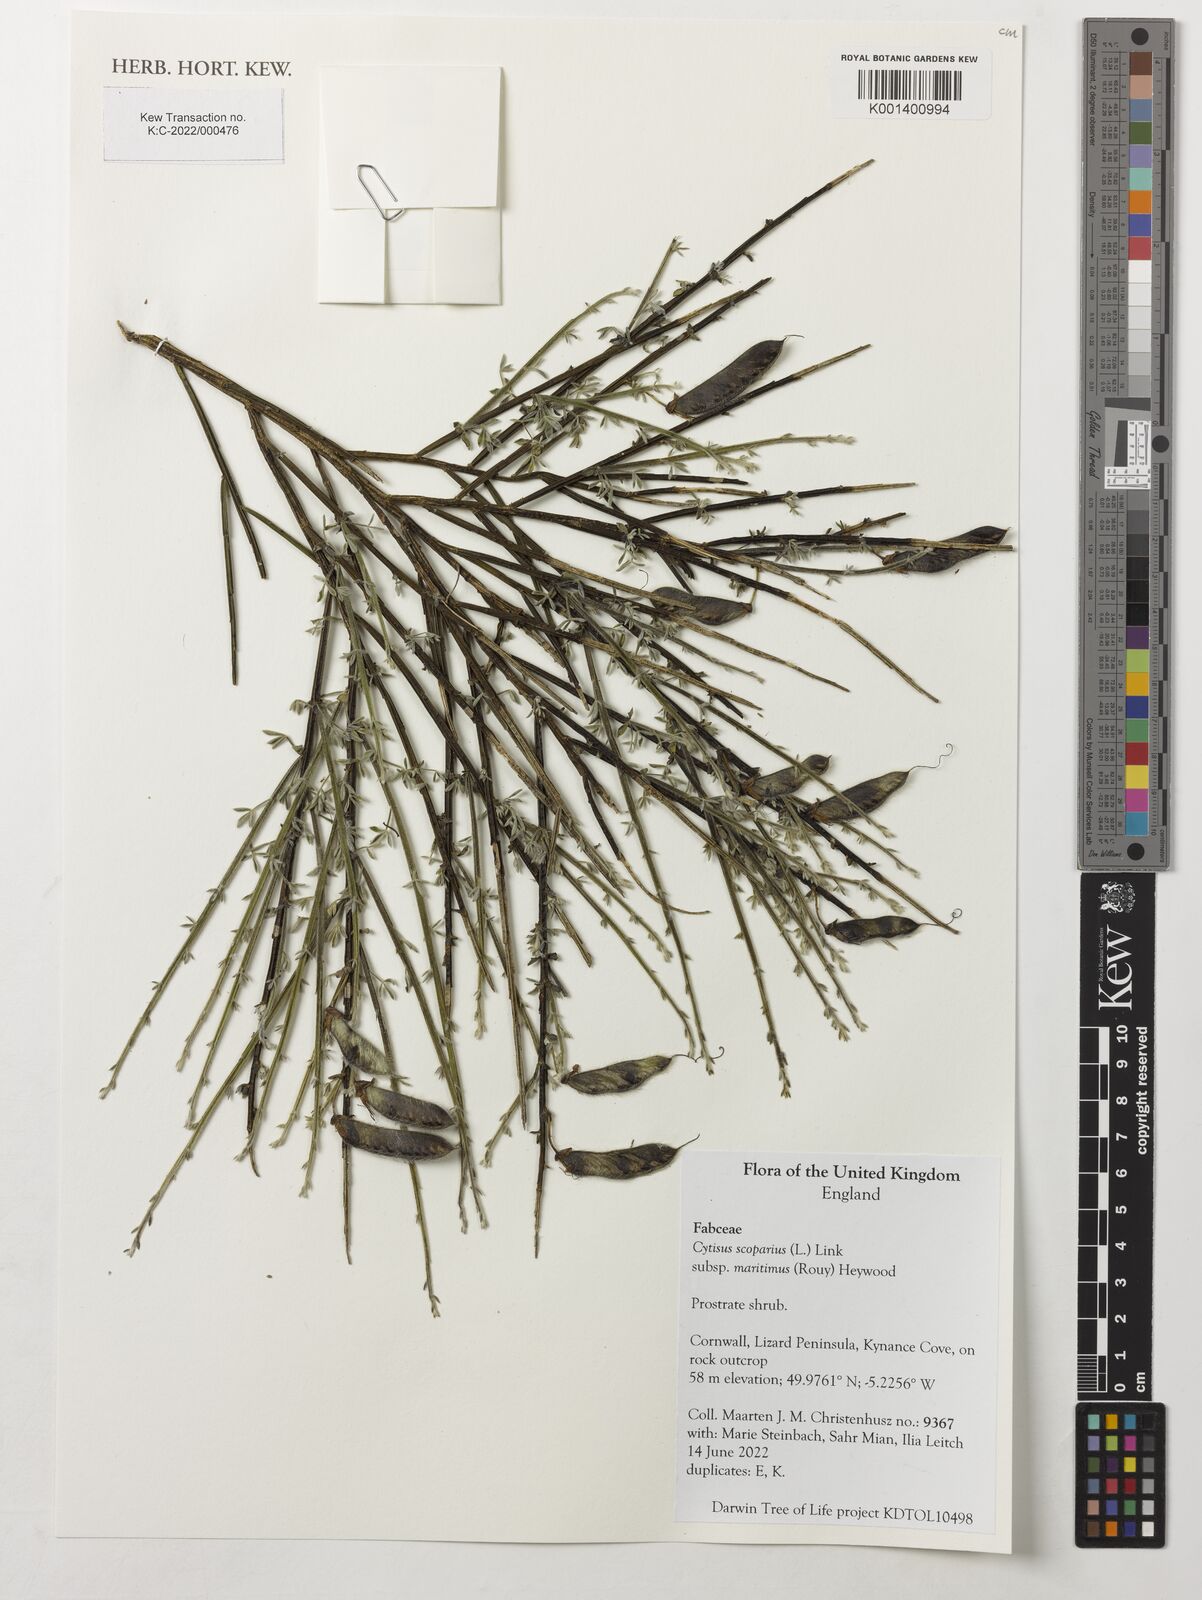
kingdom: Plantae
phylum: Tracheophyta
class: Magnoliopsida
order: Fabales
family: Fabaceae
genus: Cytisus
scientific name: Cytisus scoparius
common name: Scotch broom
